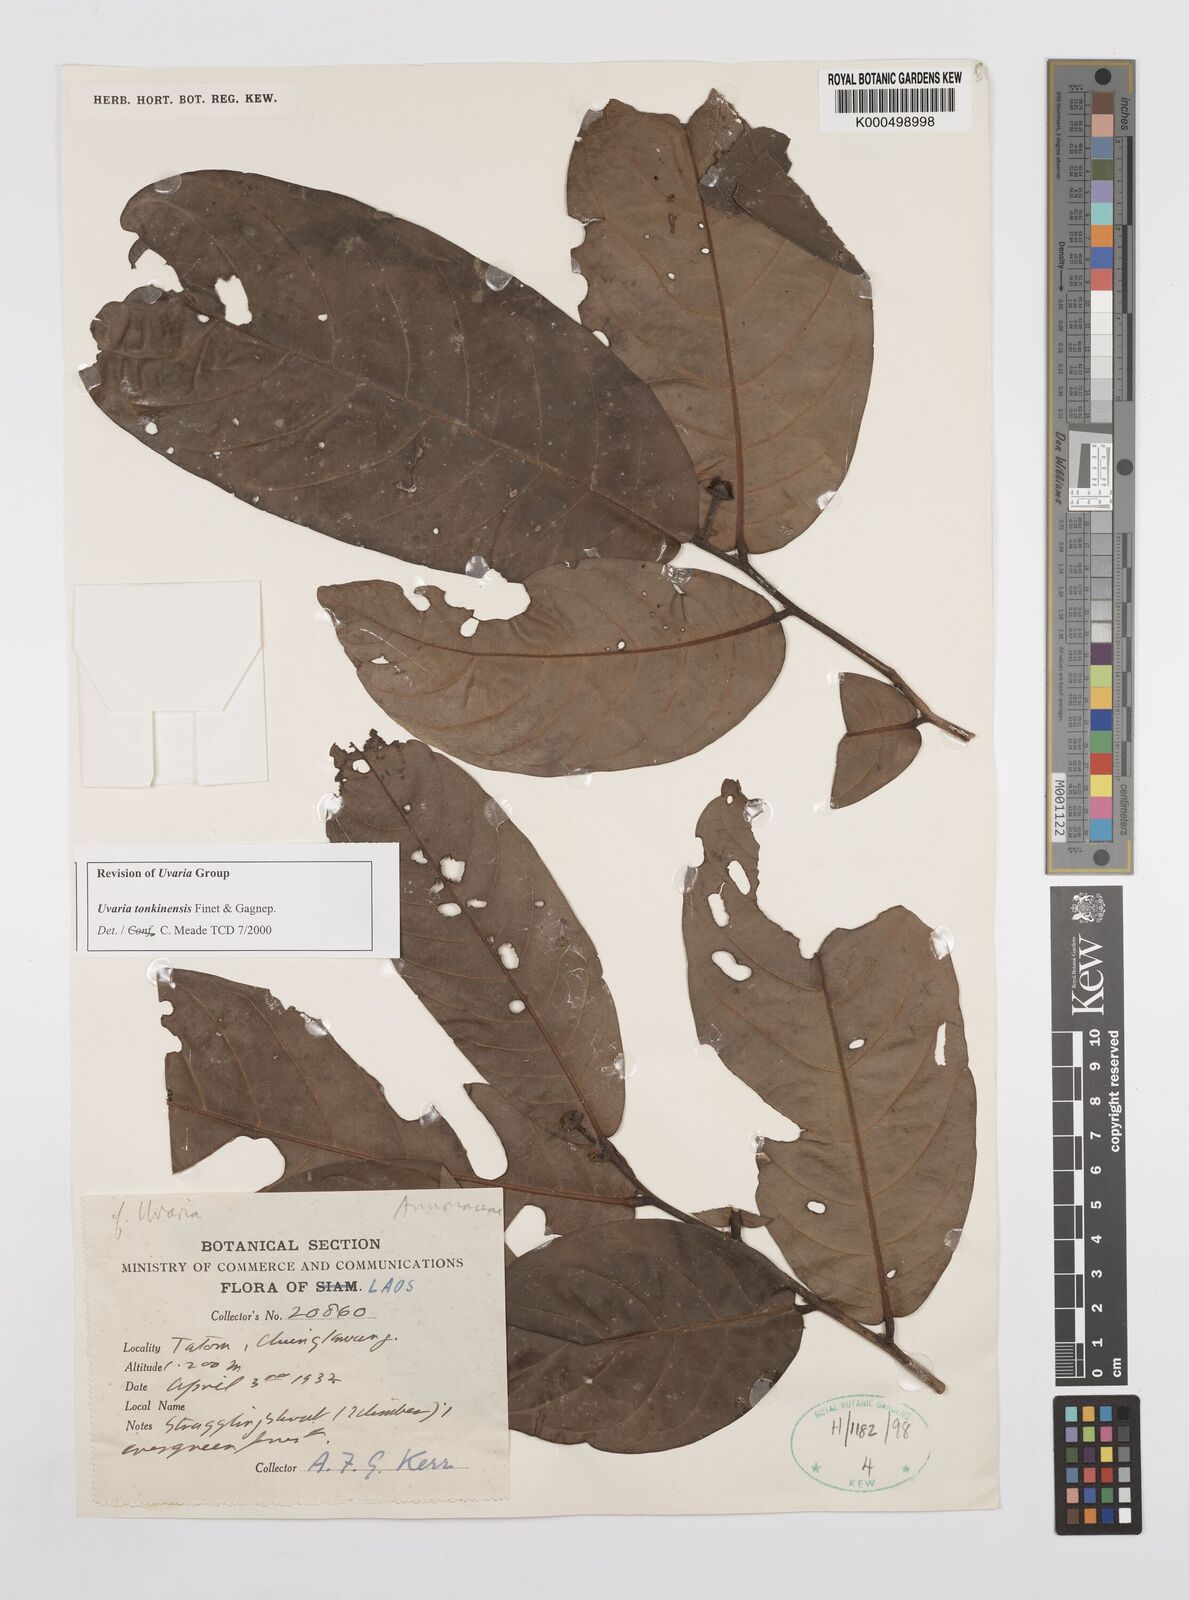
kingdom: Plantae
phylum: Tracheophyta
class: Magnoliopsida
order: Magnoliales
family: Annonaceae
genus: Uvaria
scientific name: Uvaria tonkinensis
